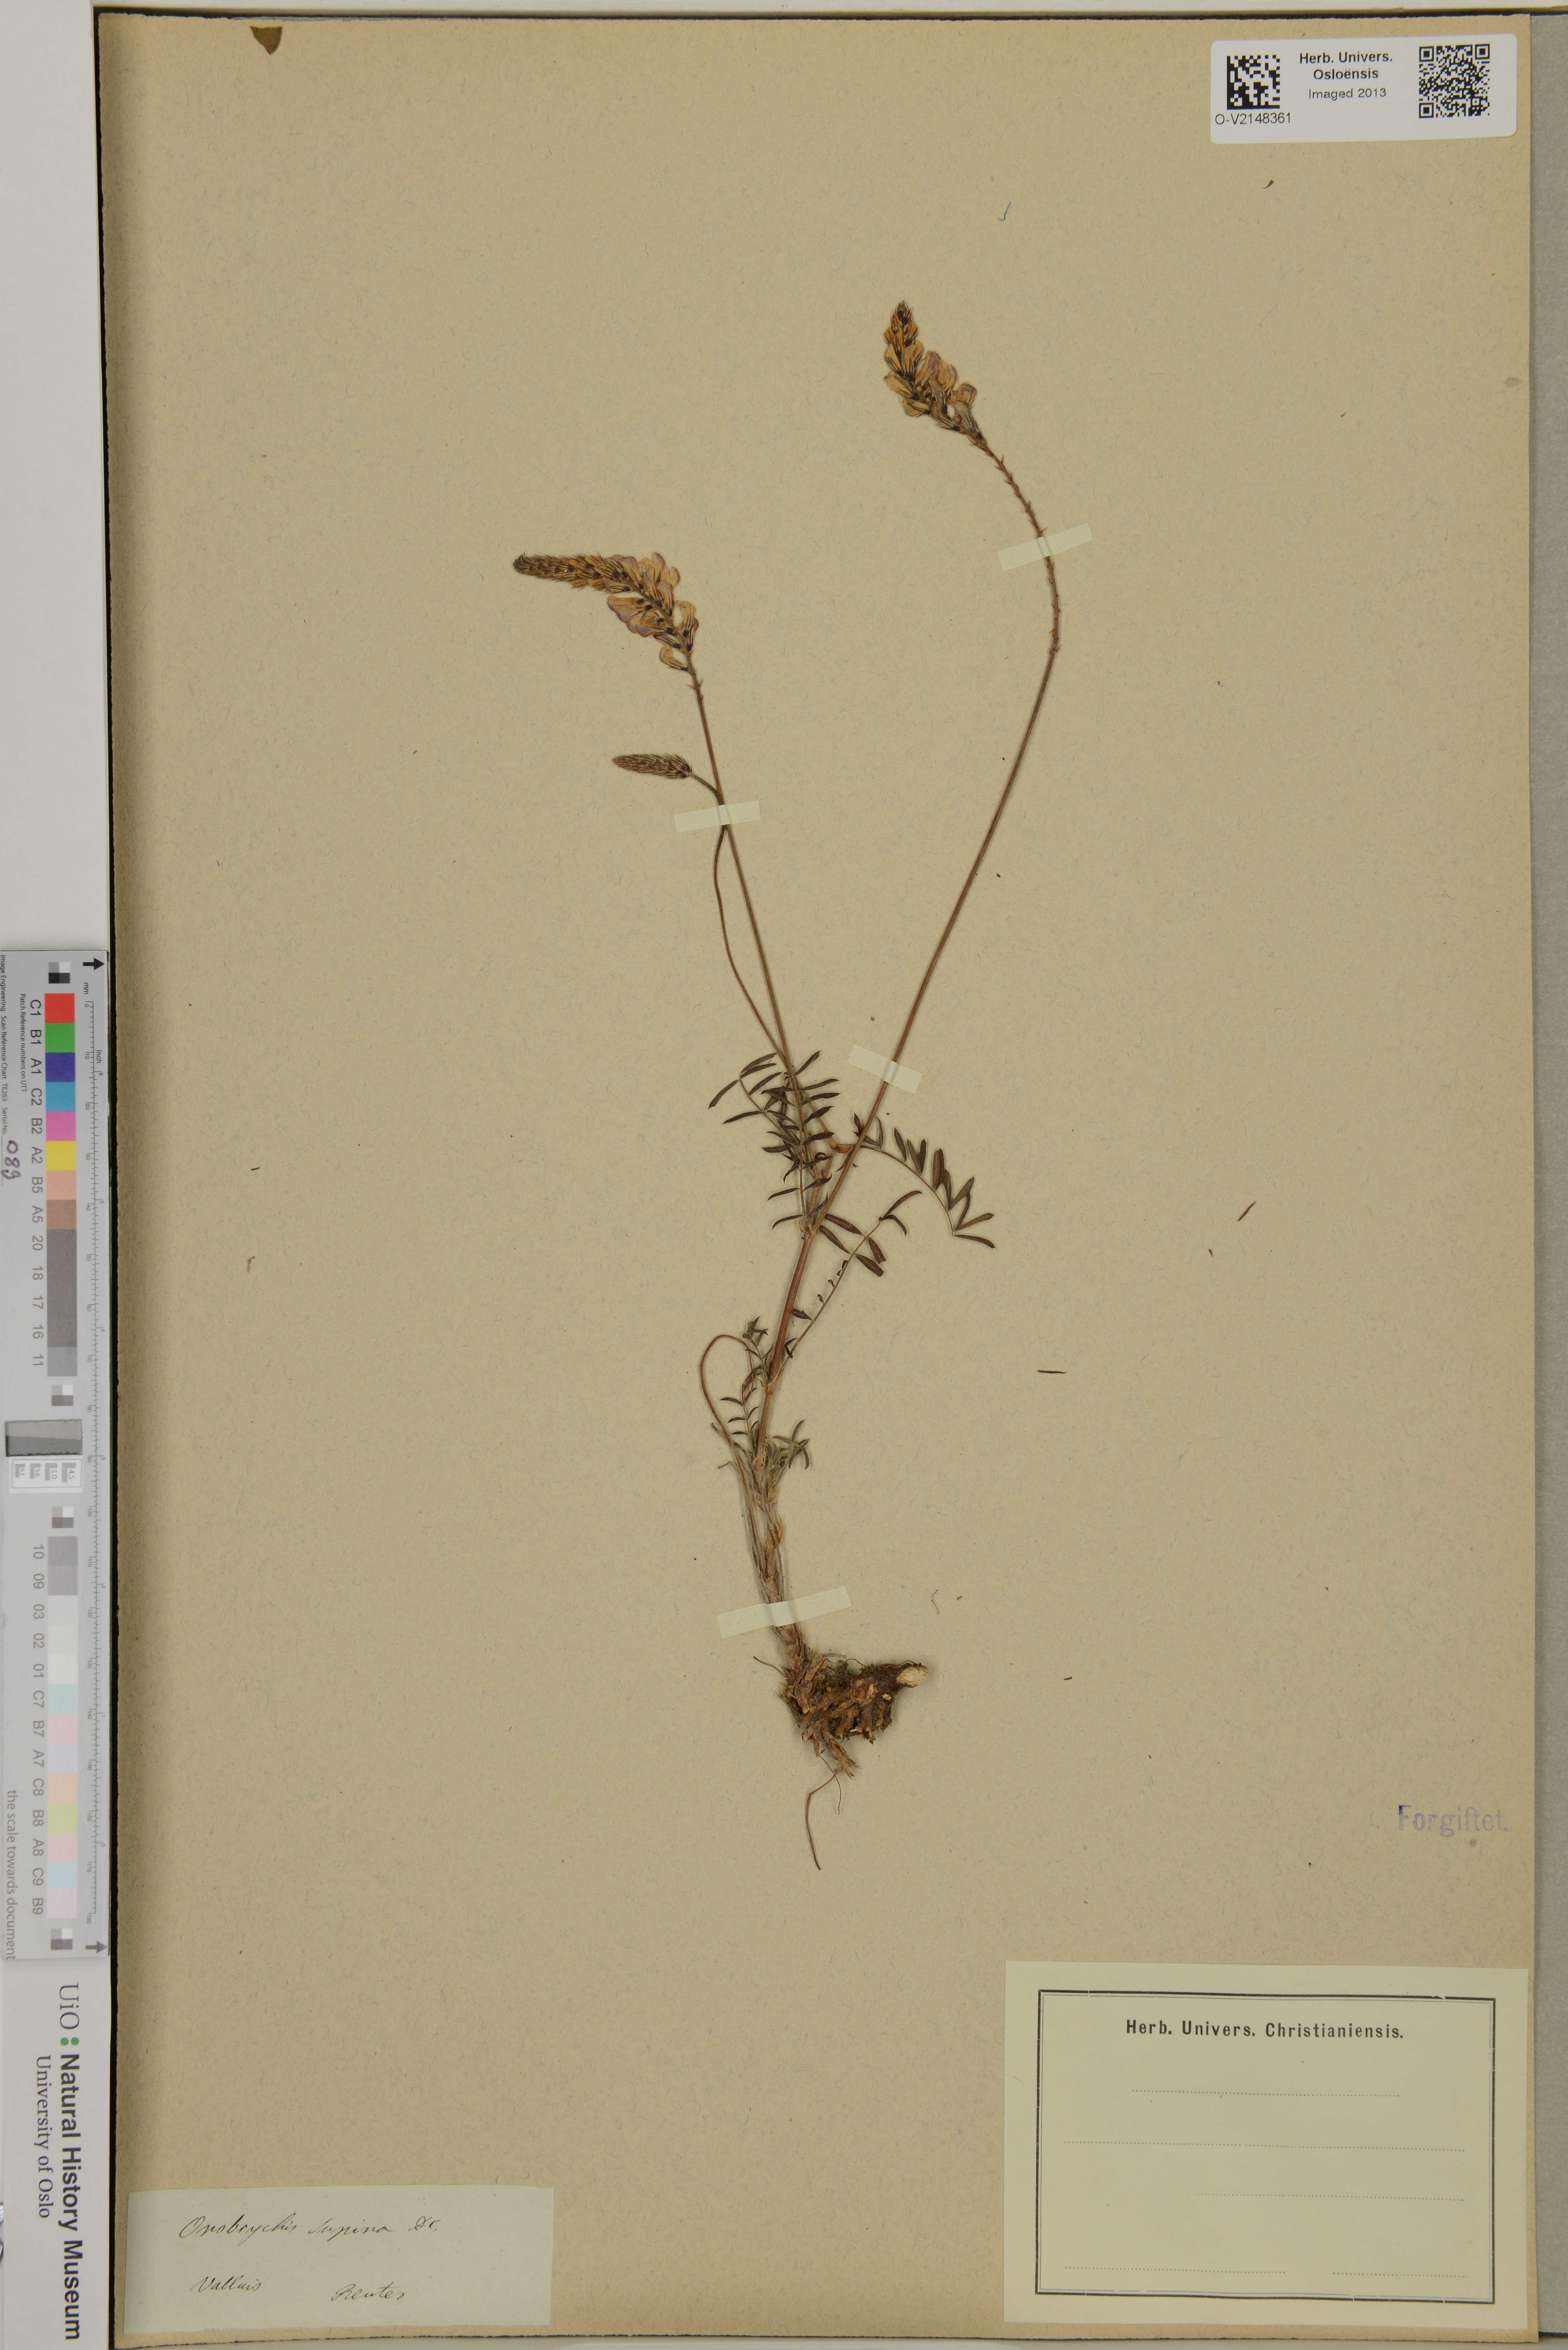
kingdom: Plantae
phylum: Tracheophyta
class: Magnoliopsida
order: Fabales
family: Fabaceae
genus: Onobrychis
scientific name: Onobrychis supina
